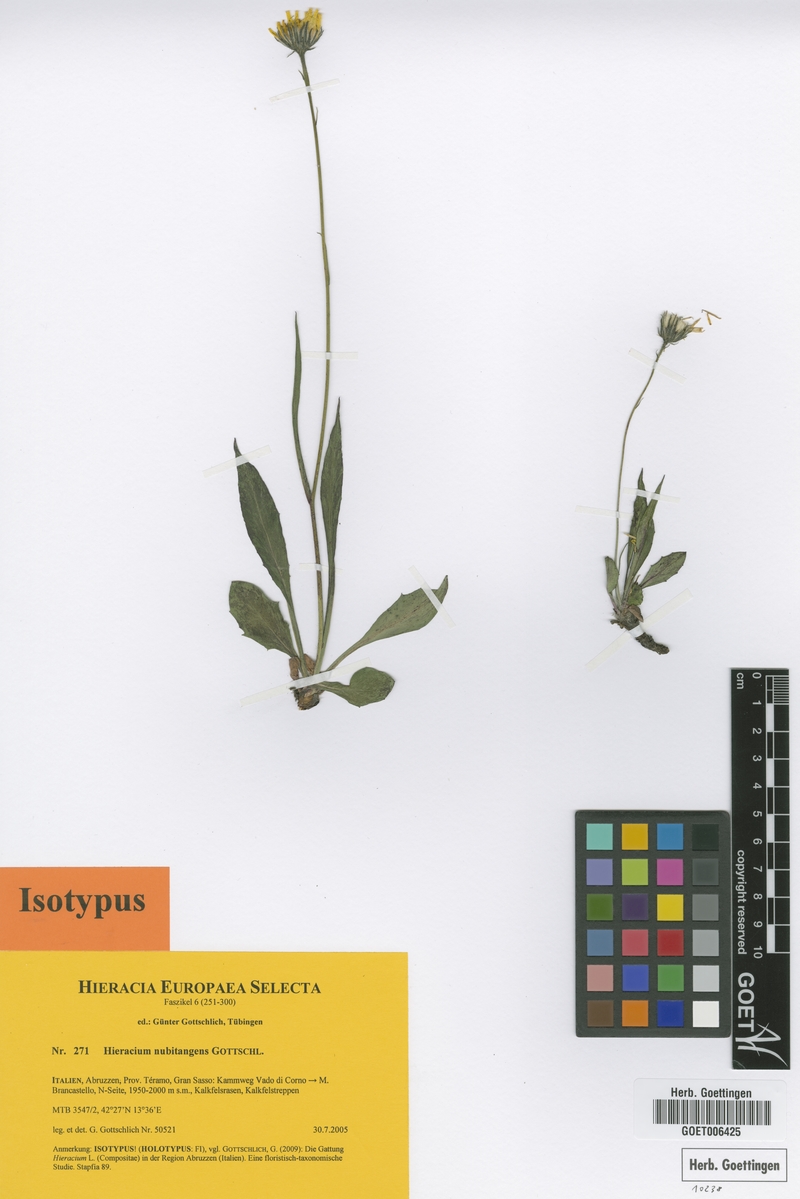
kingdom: Plantae
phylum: Tracheophyta
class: Magnoliopsida
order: Asterales
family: Asteraceae
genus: Hieracium
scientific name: Hieracium nubitangens
